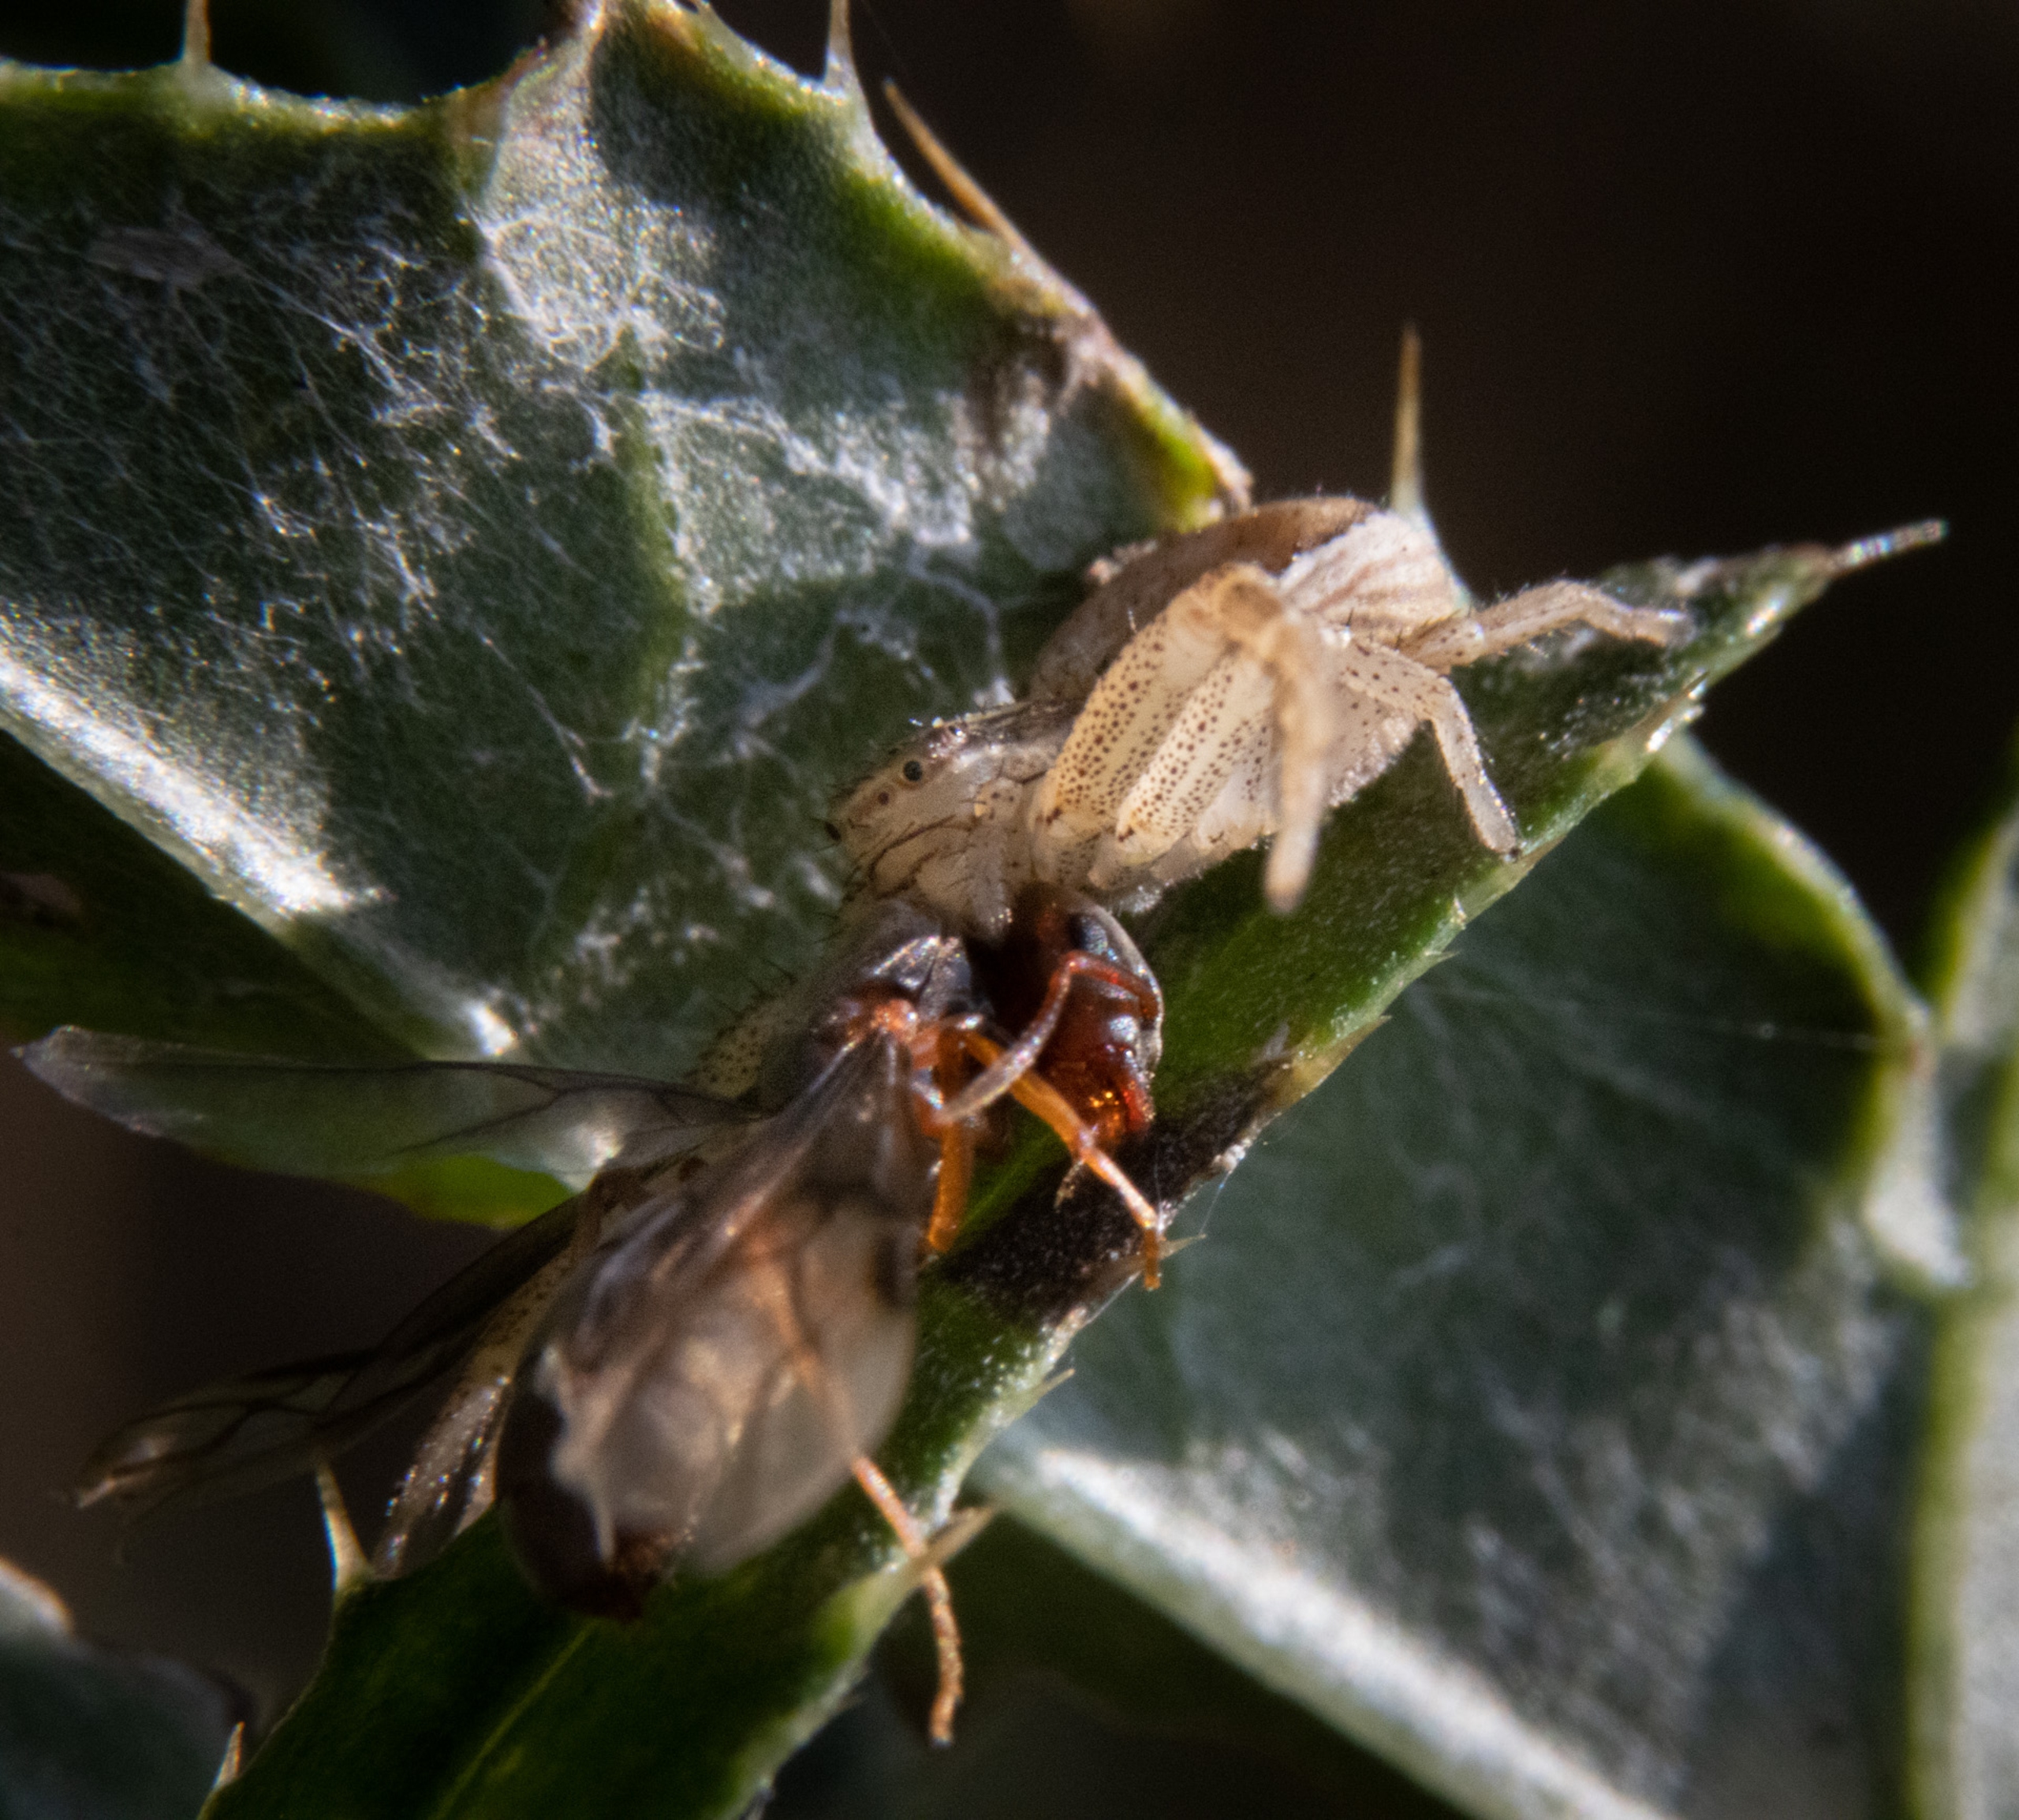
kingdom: Animalia
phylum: Arthropoda
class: Arachnida
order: Araneae
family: Thomisidae
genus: Xysticus
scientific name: Xysticus ulmi
